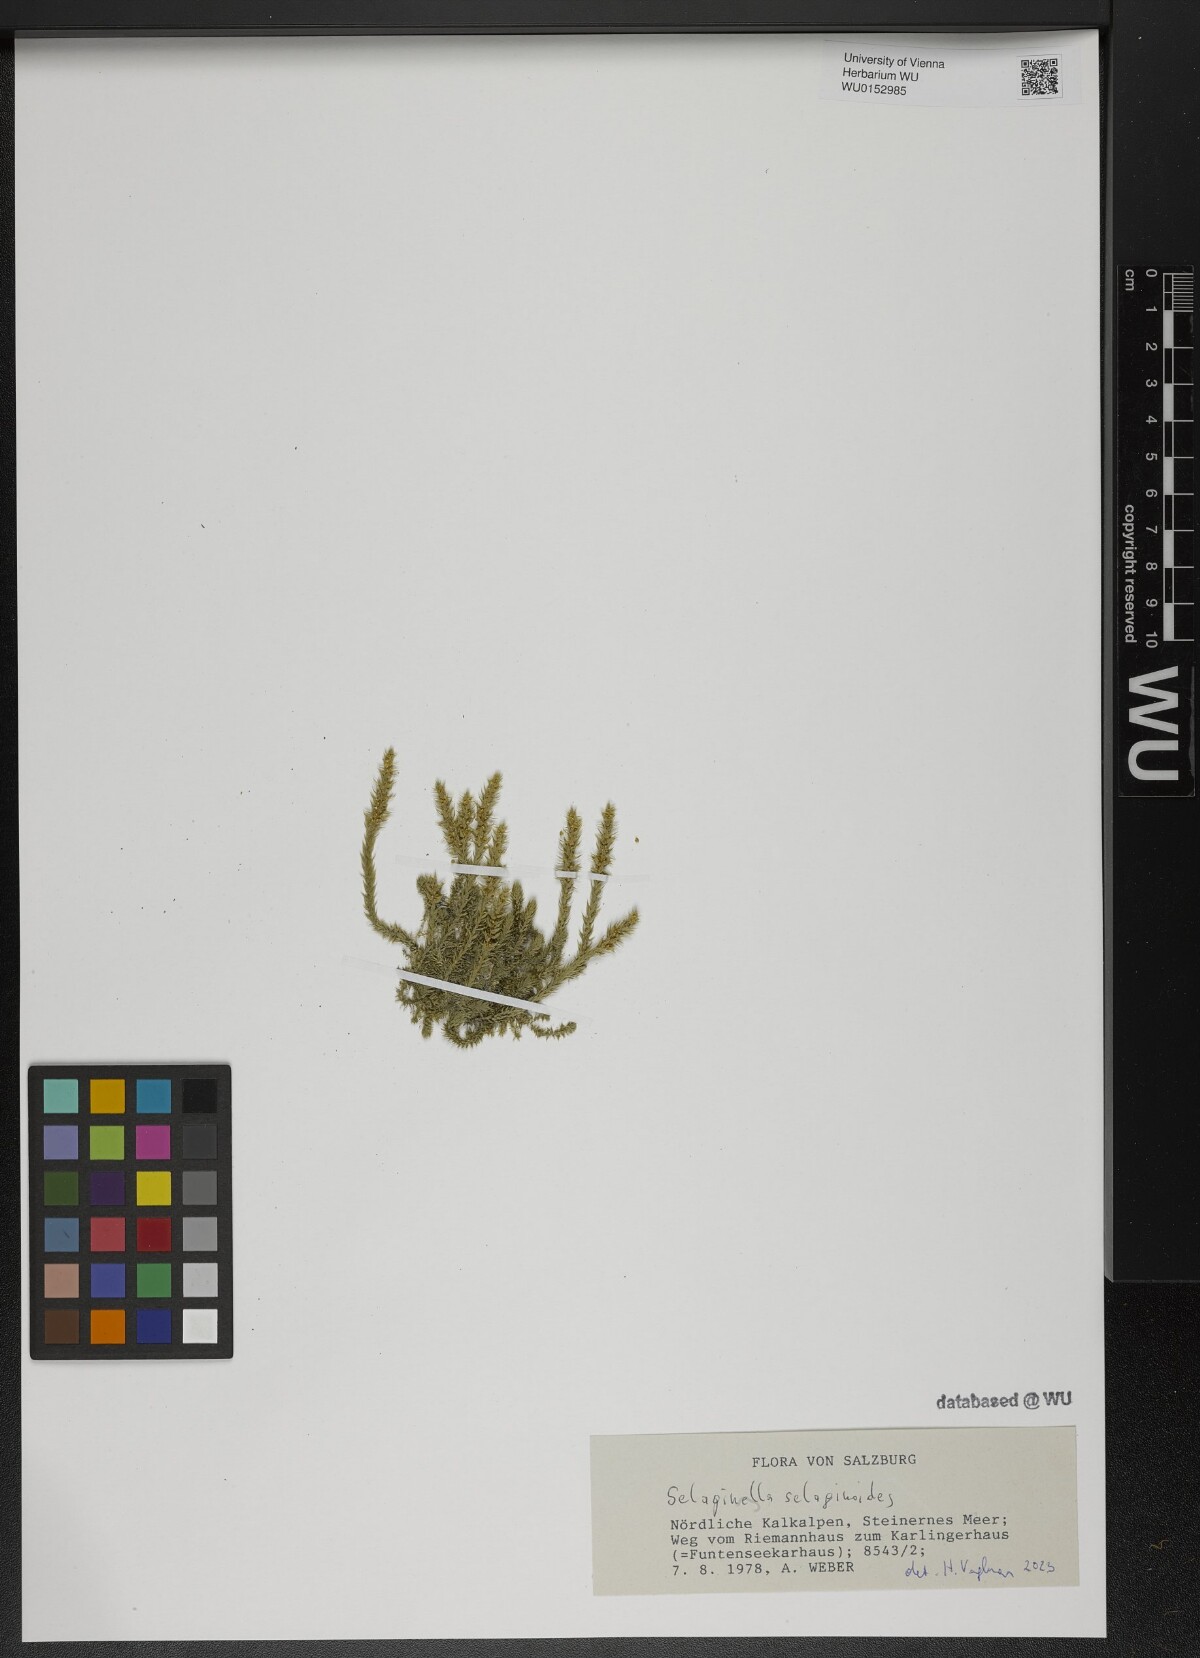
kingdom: Plantae
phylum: Tracheophyta
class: Lycopodiopsida
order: Selaginellales
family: Selaginellaceae
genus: Selaginella
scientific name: Selaginella selaginoides
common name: Prickly mountain-moss
